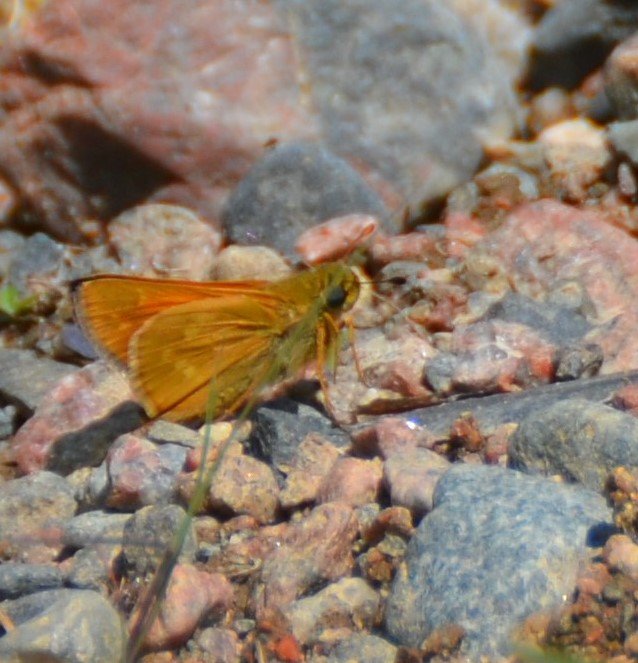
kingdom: Animalia
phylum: Arthropoda
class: Insecta
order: Lepidoptera
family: Hesperiidae
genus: Hesperia
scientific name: Hesperia sassacus
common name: Sassacus Skipper
